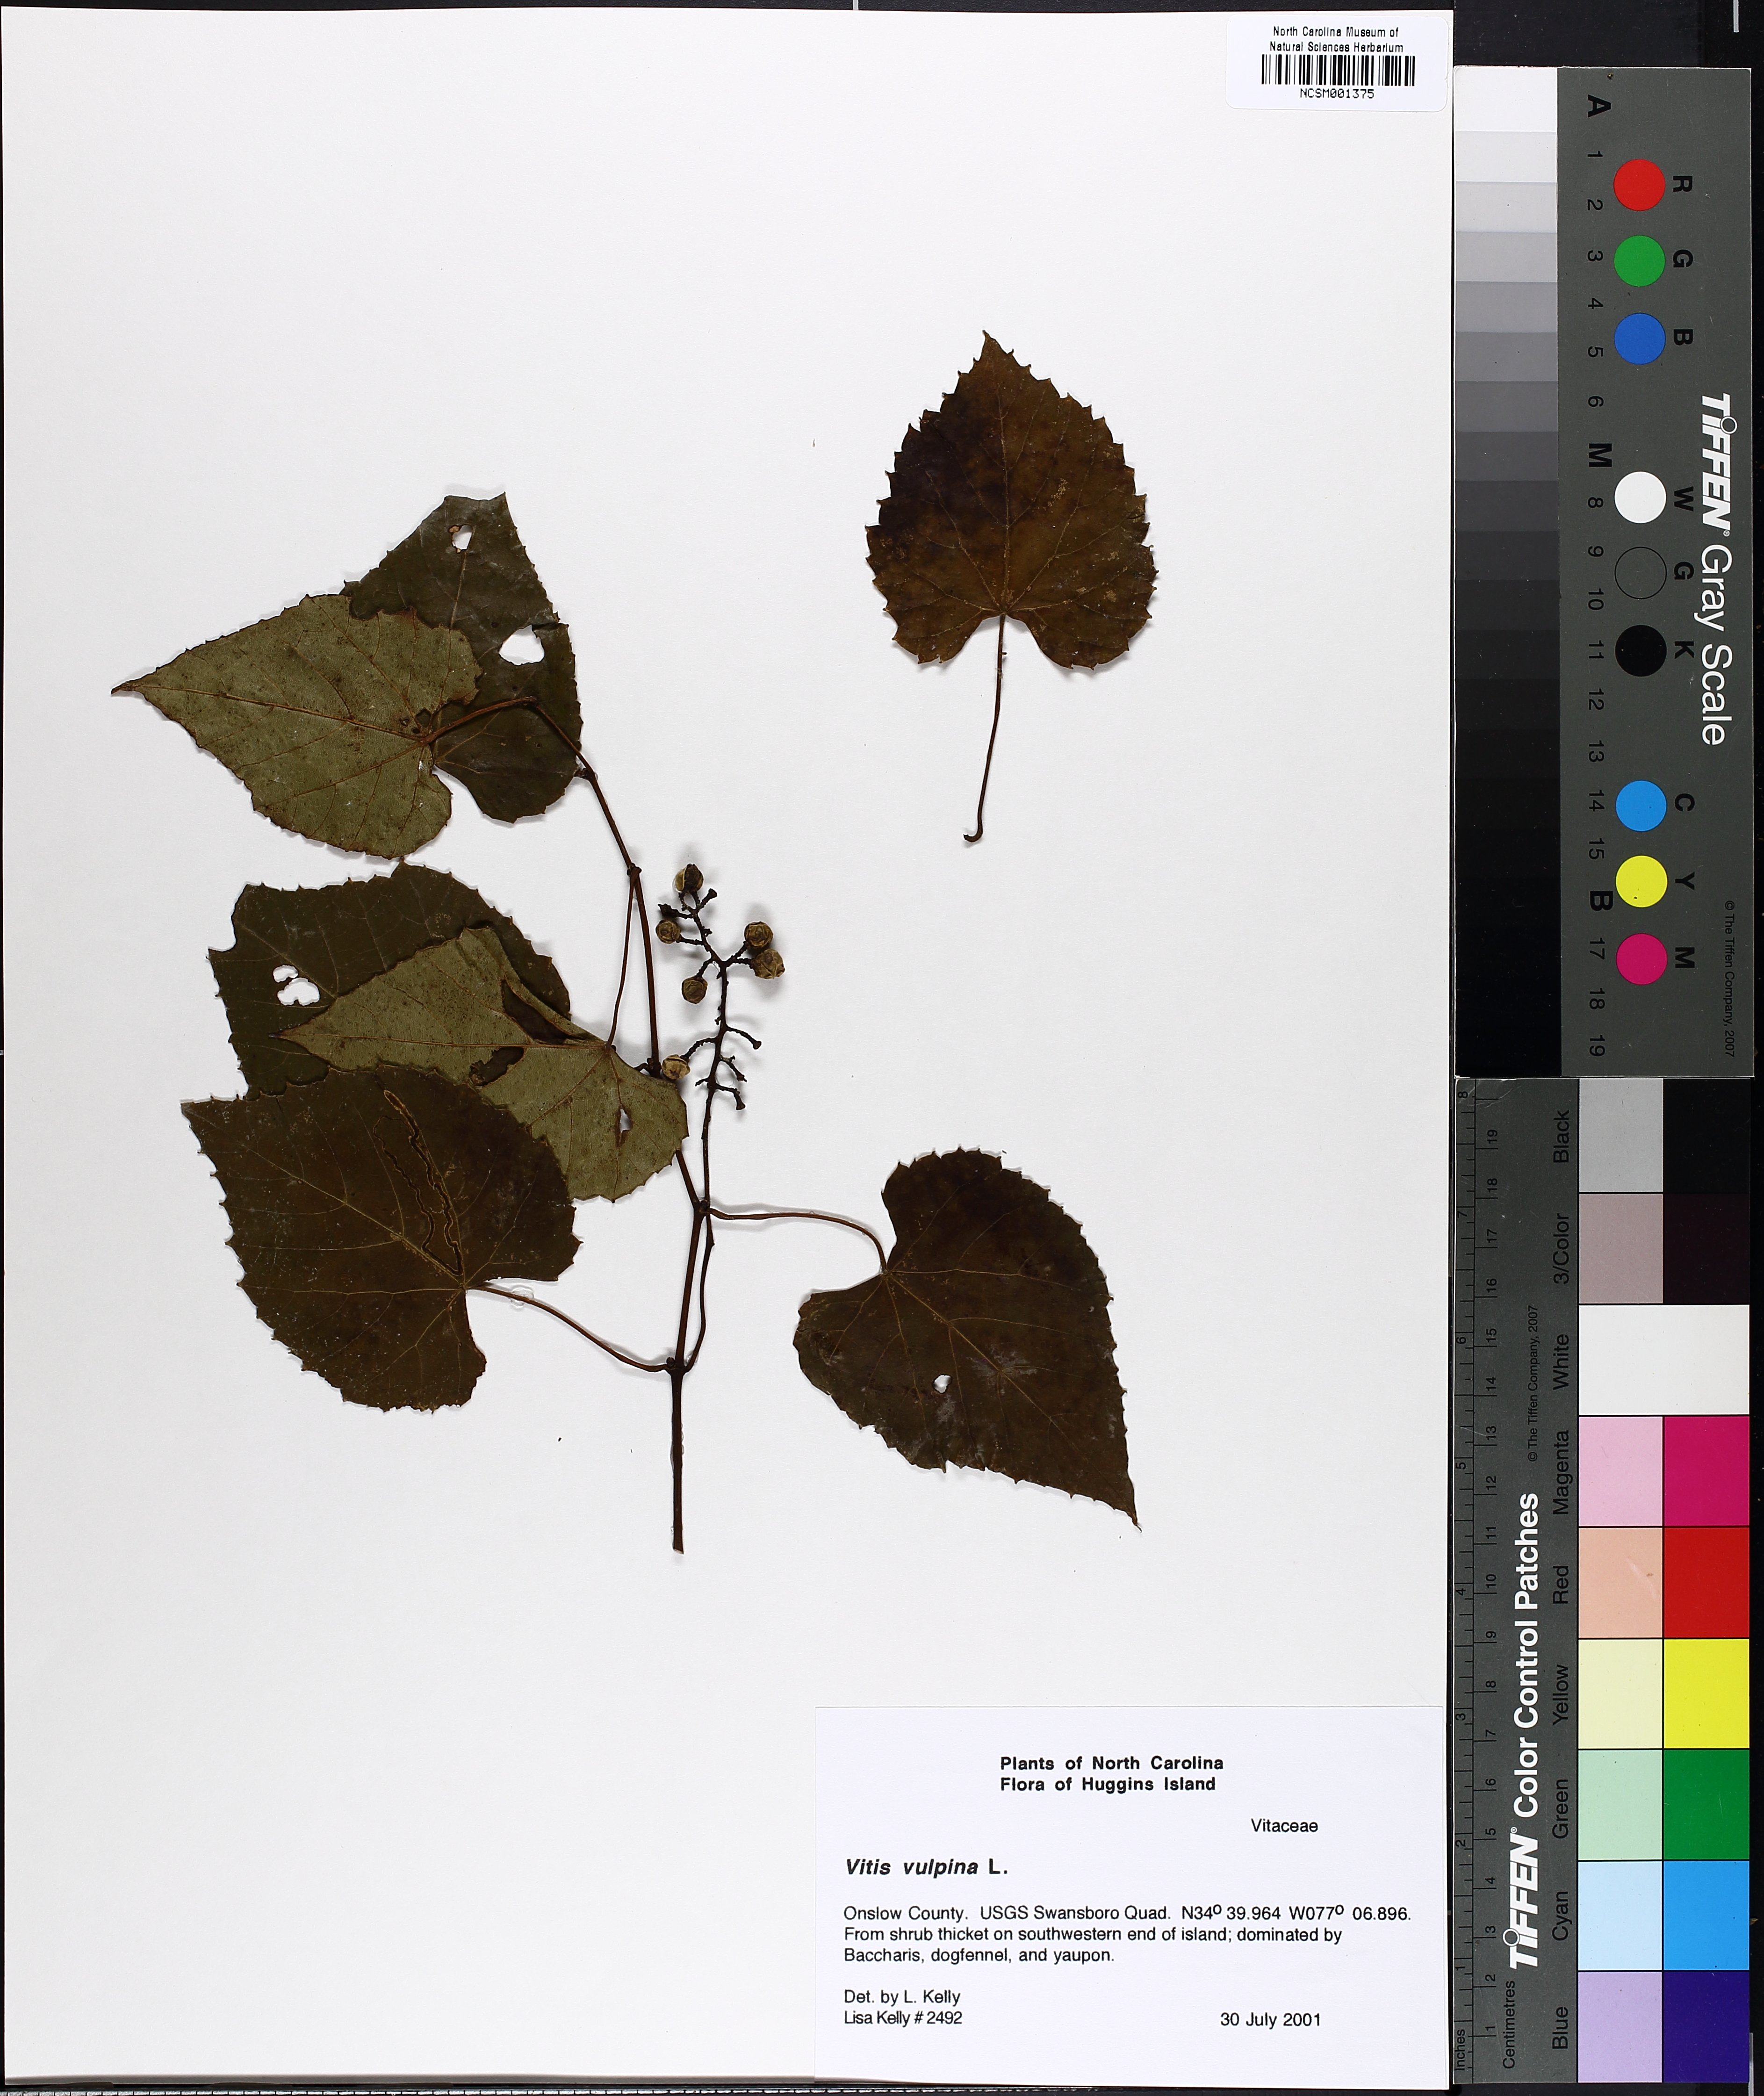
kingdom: Plantae
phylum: Tracheophyta
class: Magnoliopsida
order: Vitales
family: Vitaceae
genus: Vitis
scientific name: Vitis vulpina
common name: Frost grape
